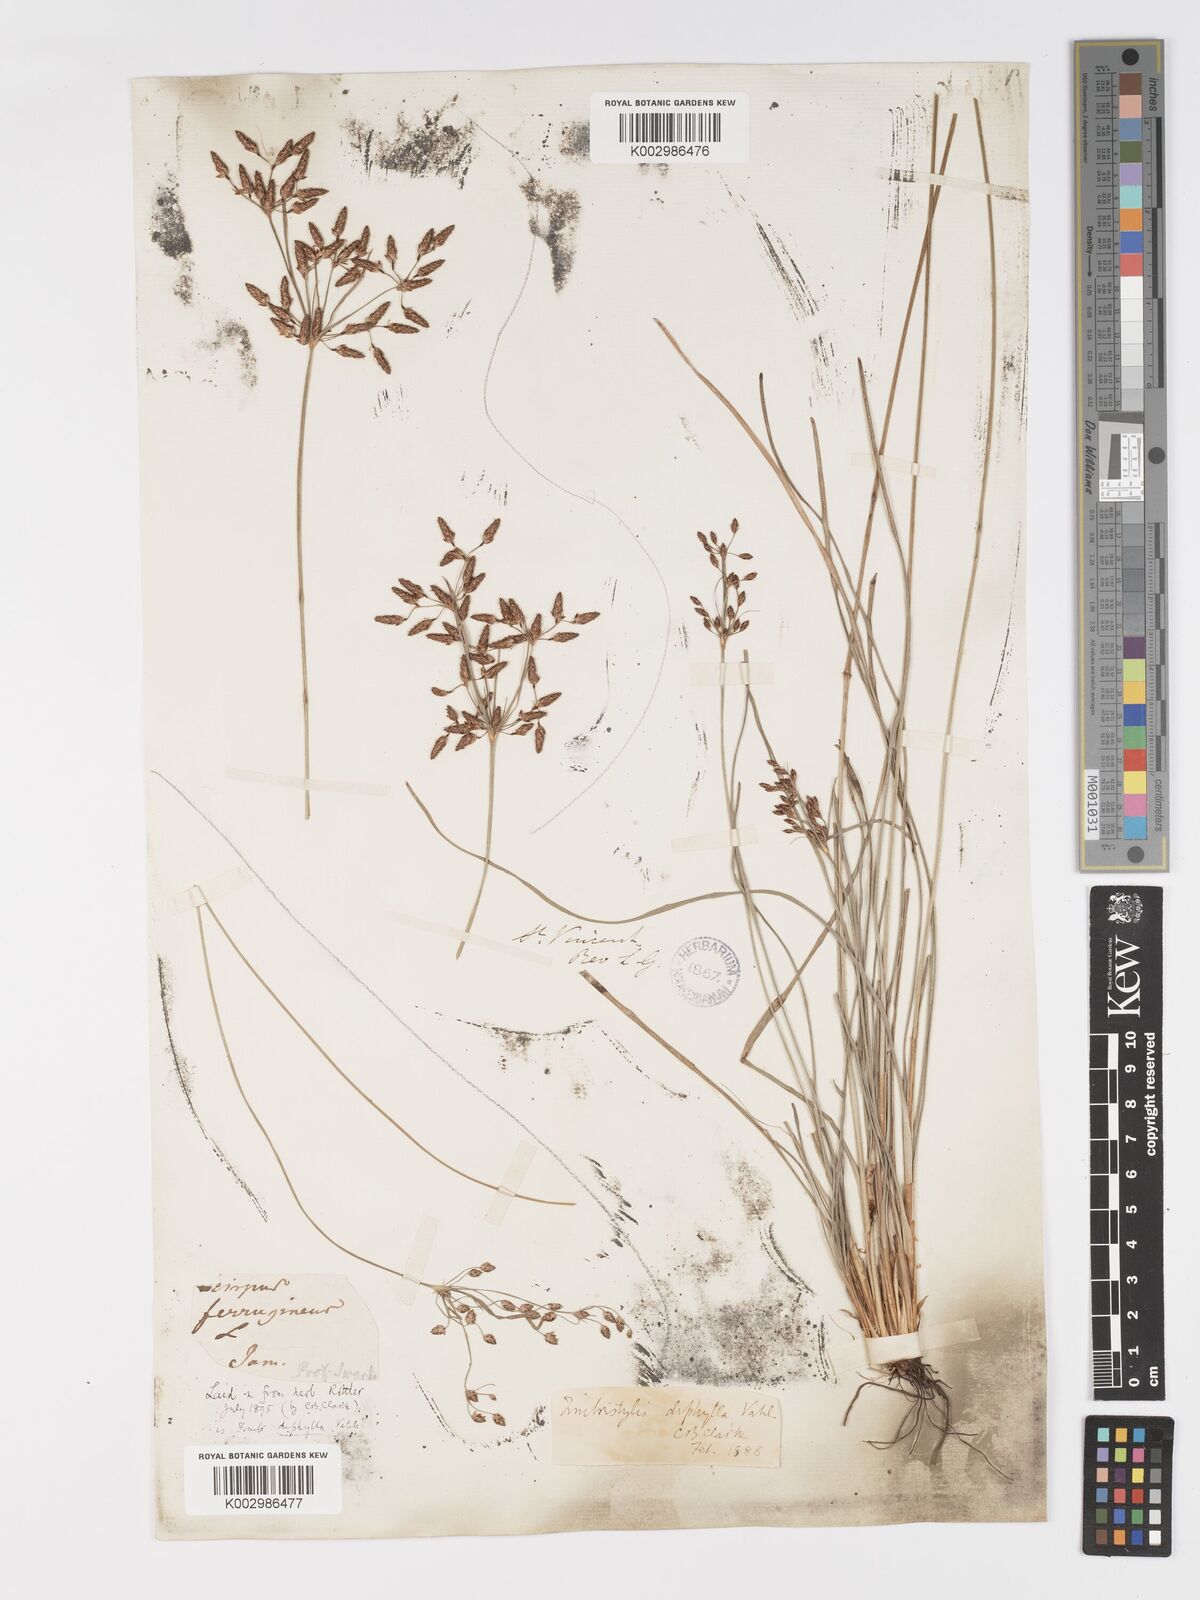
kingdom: Plantae
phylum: Tracheophyta
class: Liliopsida
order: Poales
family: Cyperaceae
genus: Fimbristylis
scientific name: Fimbristylis dichotoma
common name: Forked fimbry
